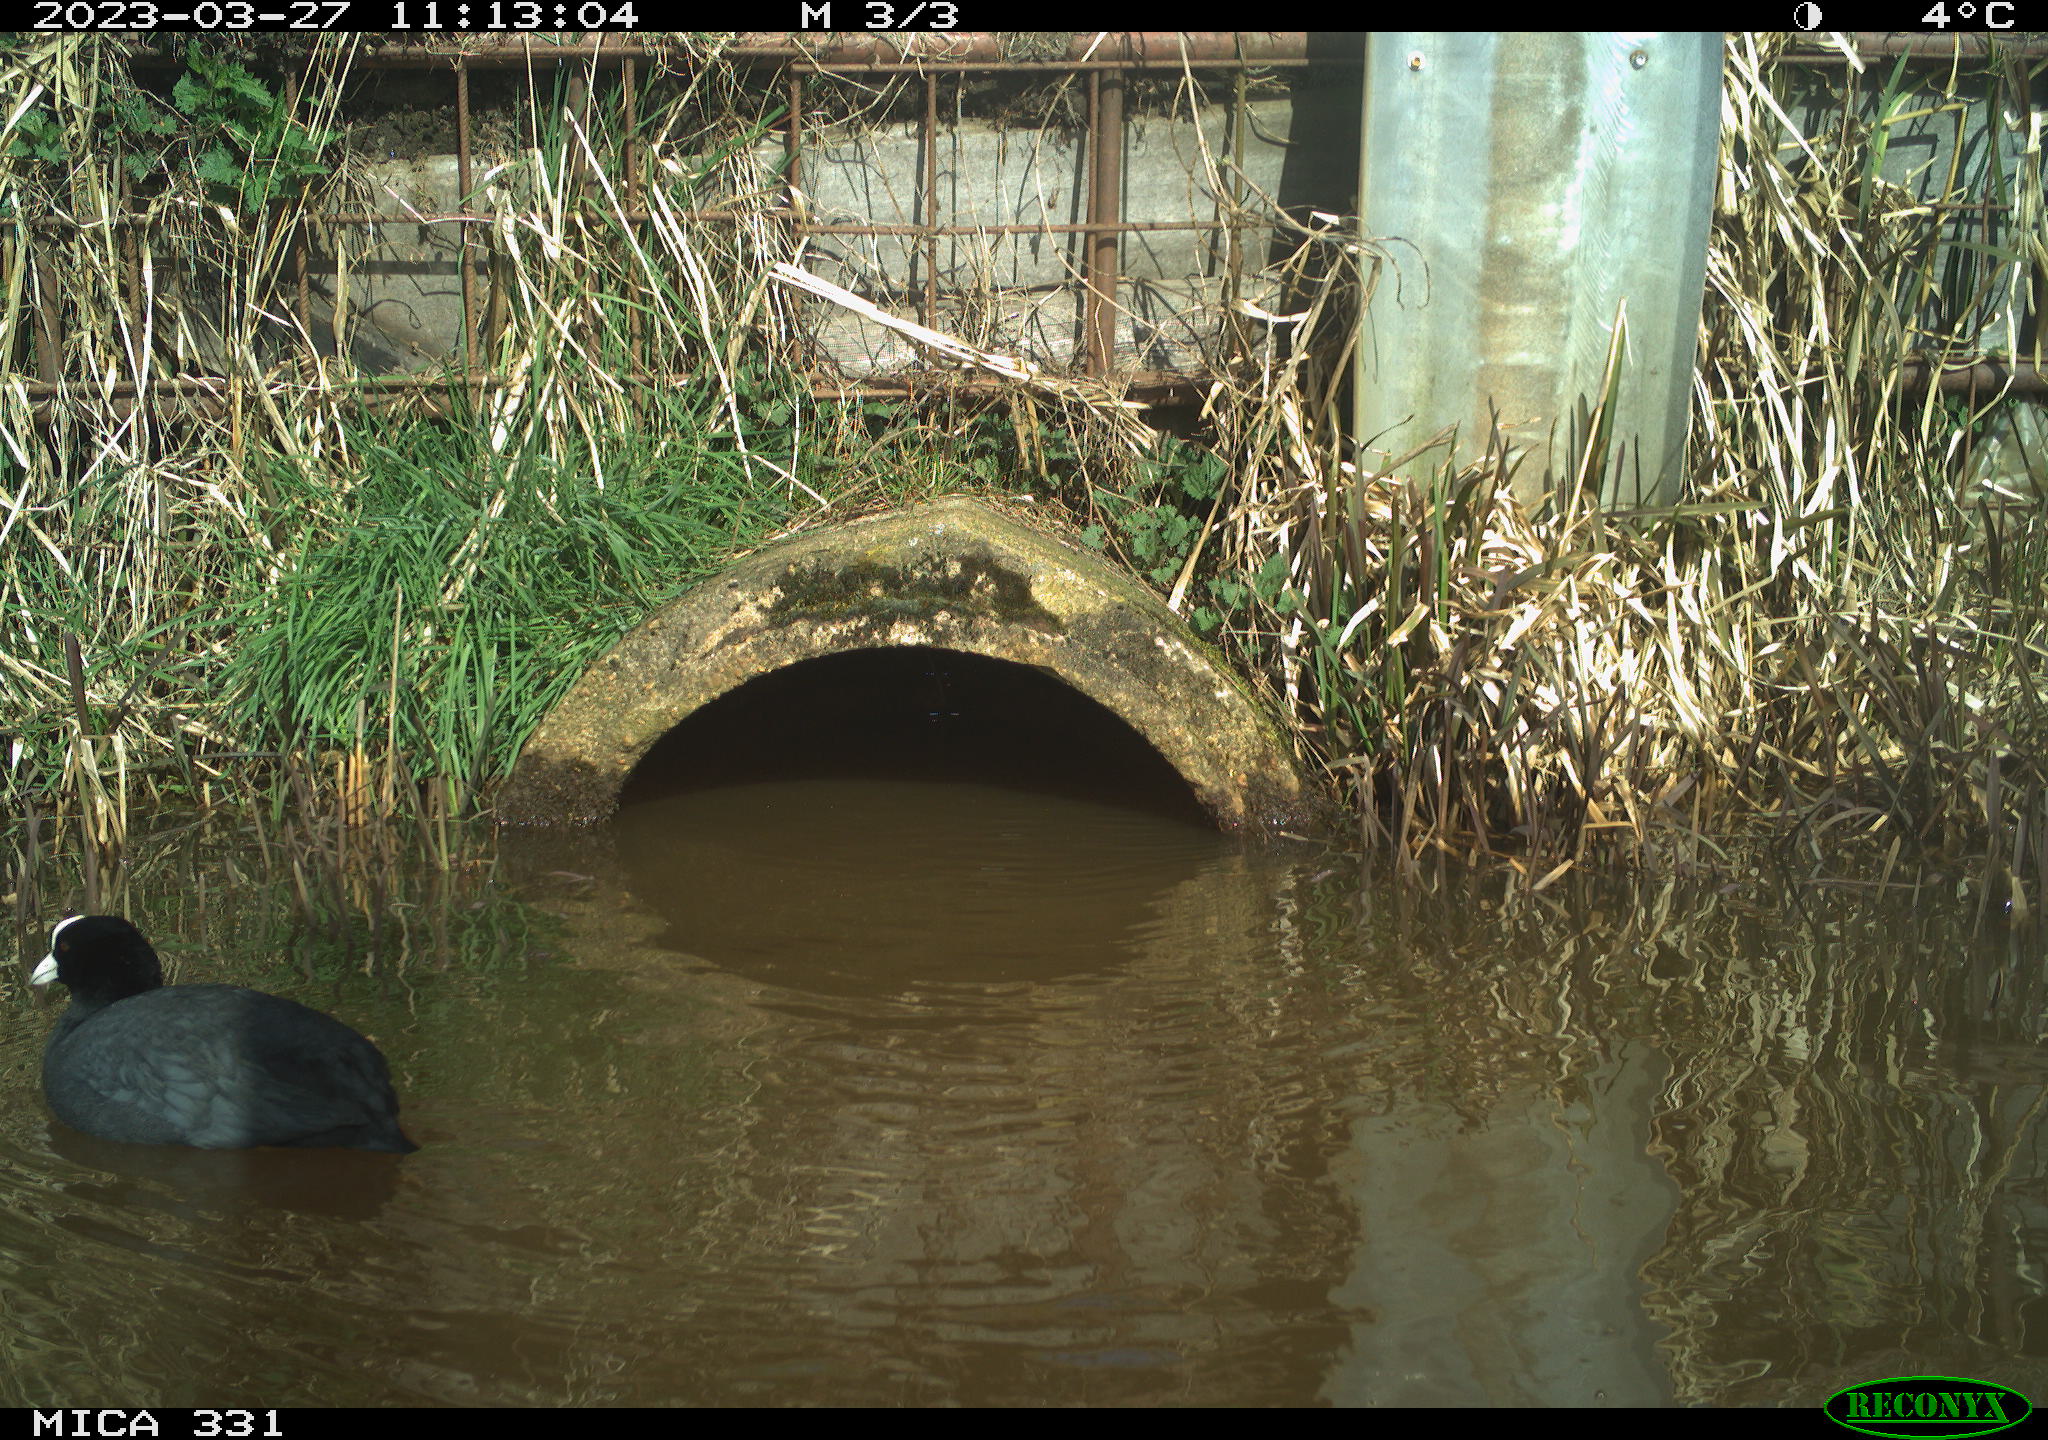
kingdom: Animalia
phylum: Chordata
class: Aves
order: Gruiformes
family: Rallidae
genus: Fulica
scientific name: Fulica atra
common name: Eurasian coot
